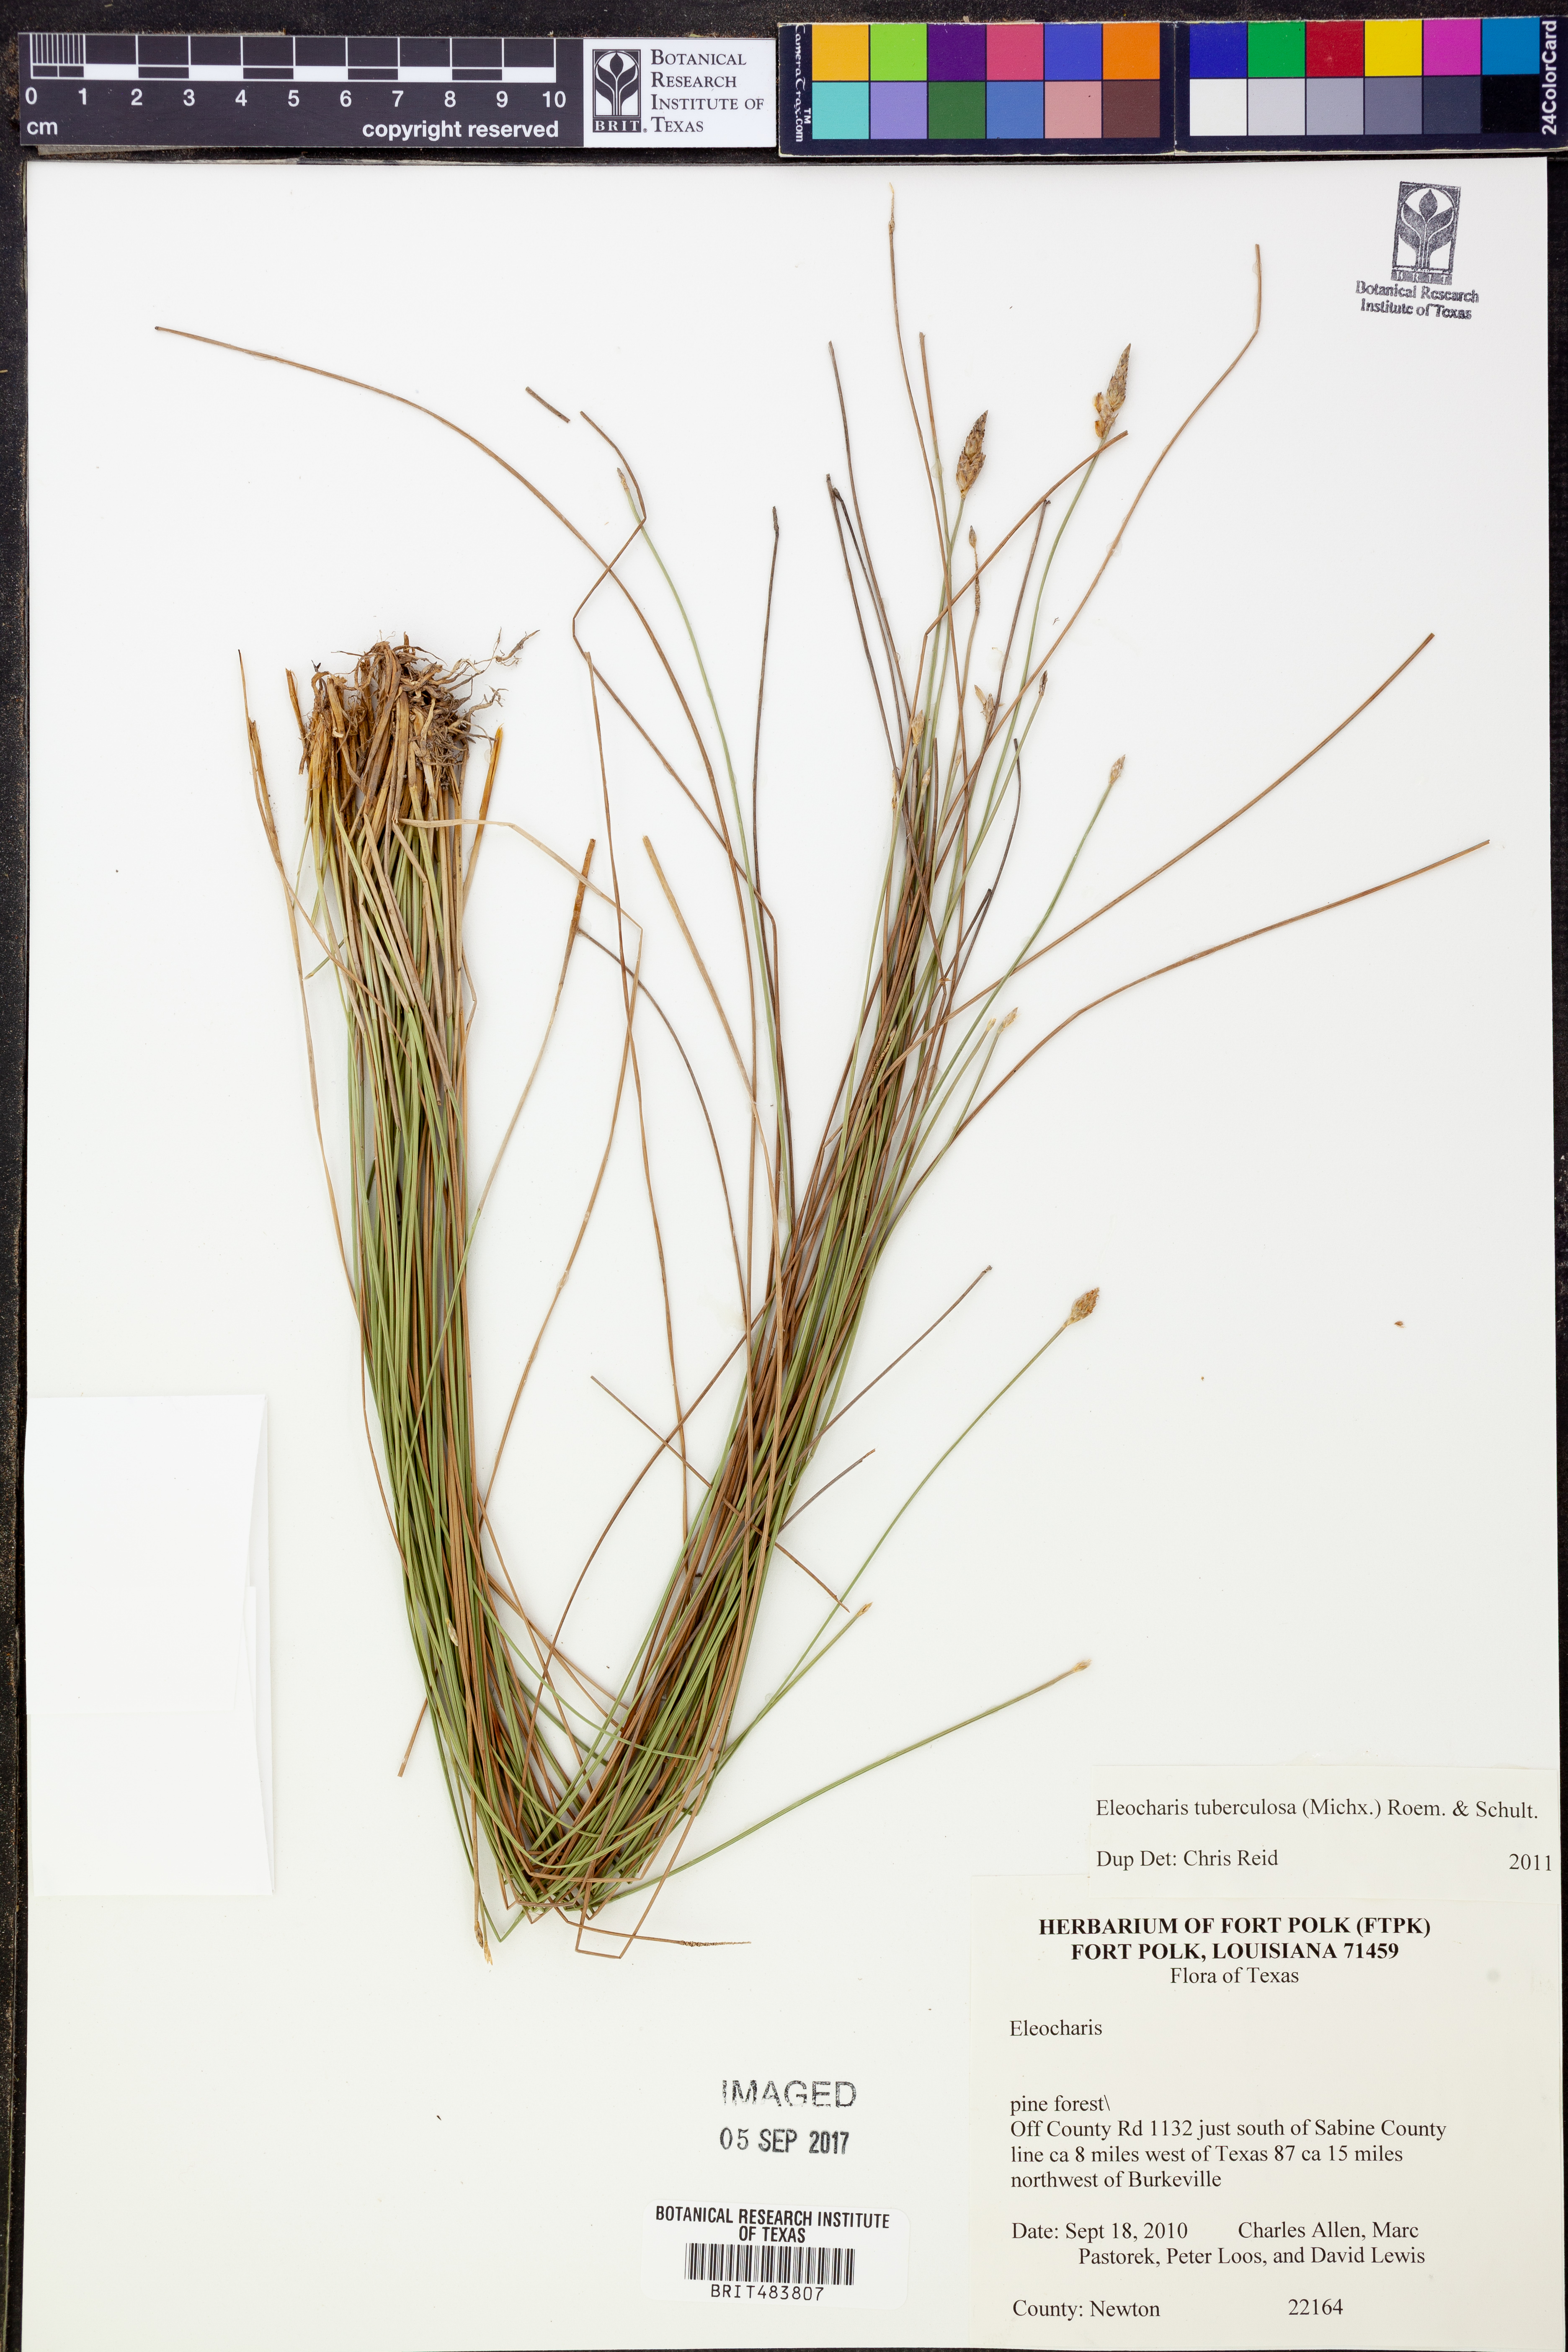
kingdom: Plantae
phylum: Tracheophyta
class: Liliopsida
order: Poales
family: Cyperaceae
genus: Eleocharis
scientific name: Eleocharis tuberculosa
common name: Cone-cup spikerush
